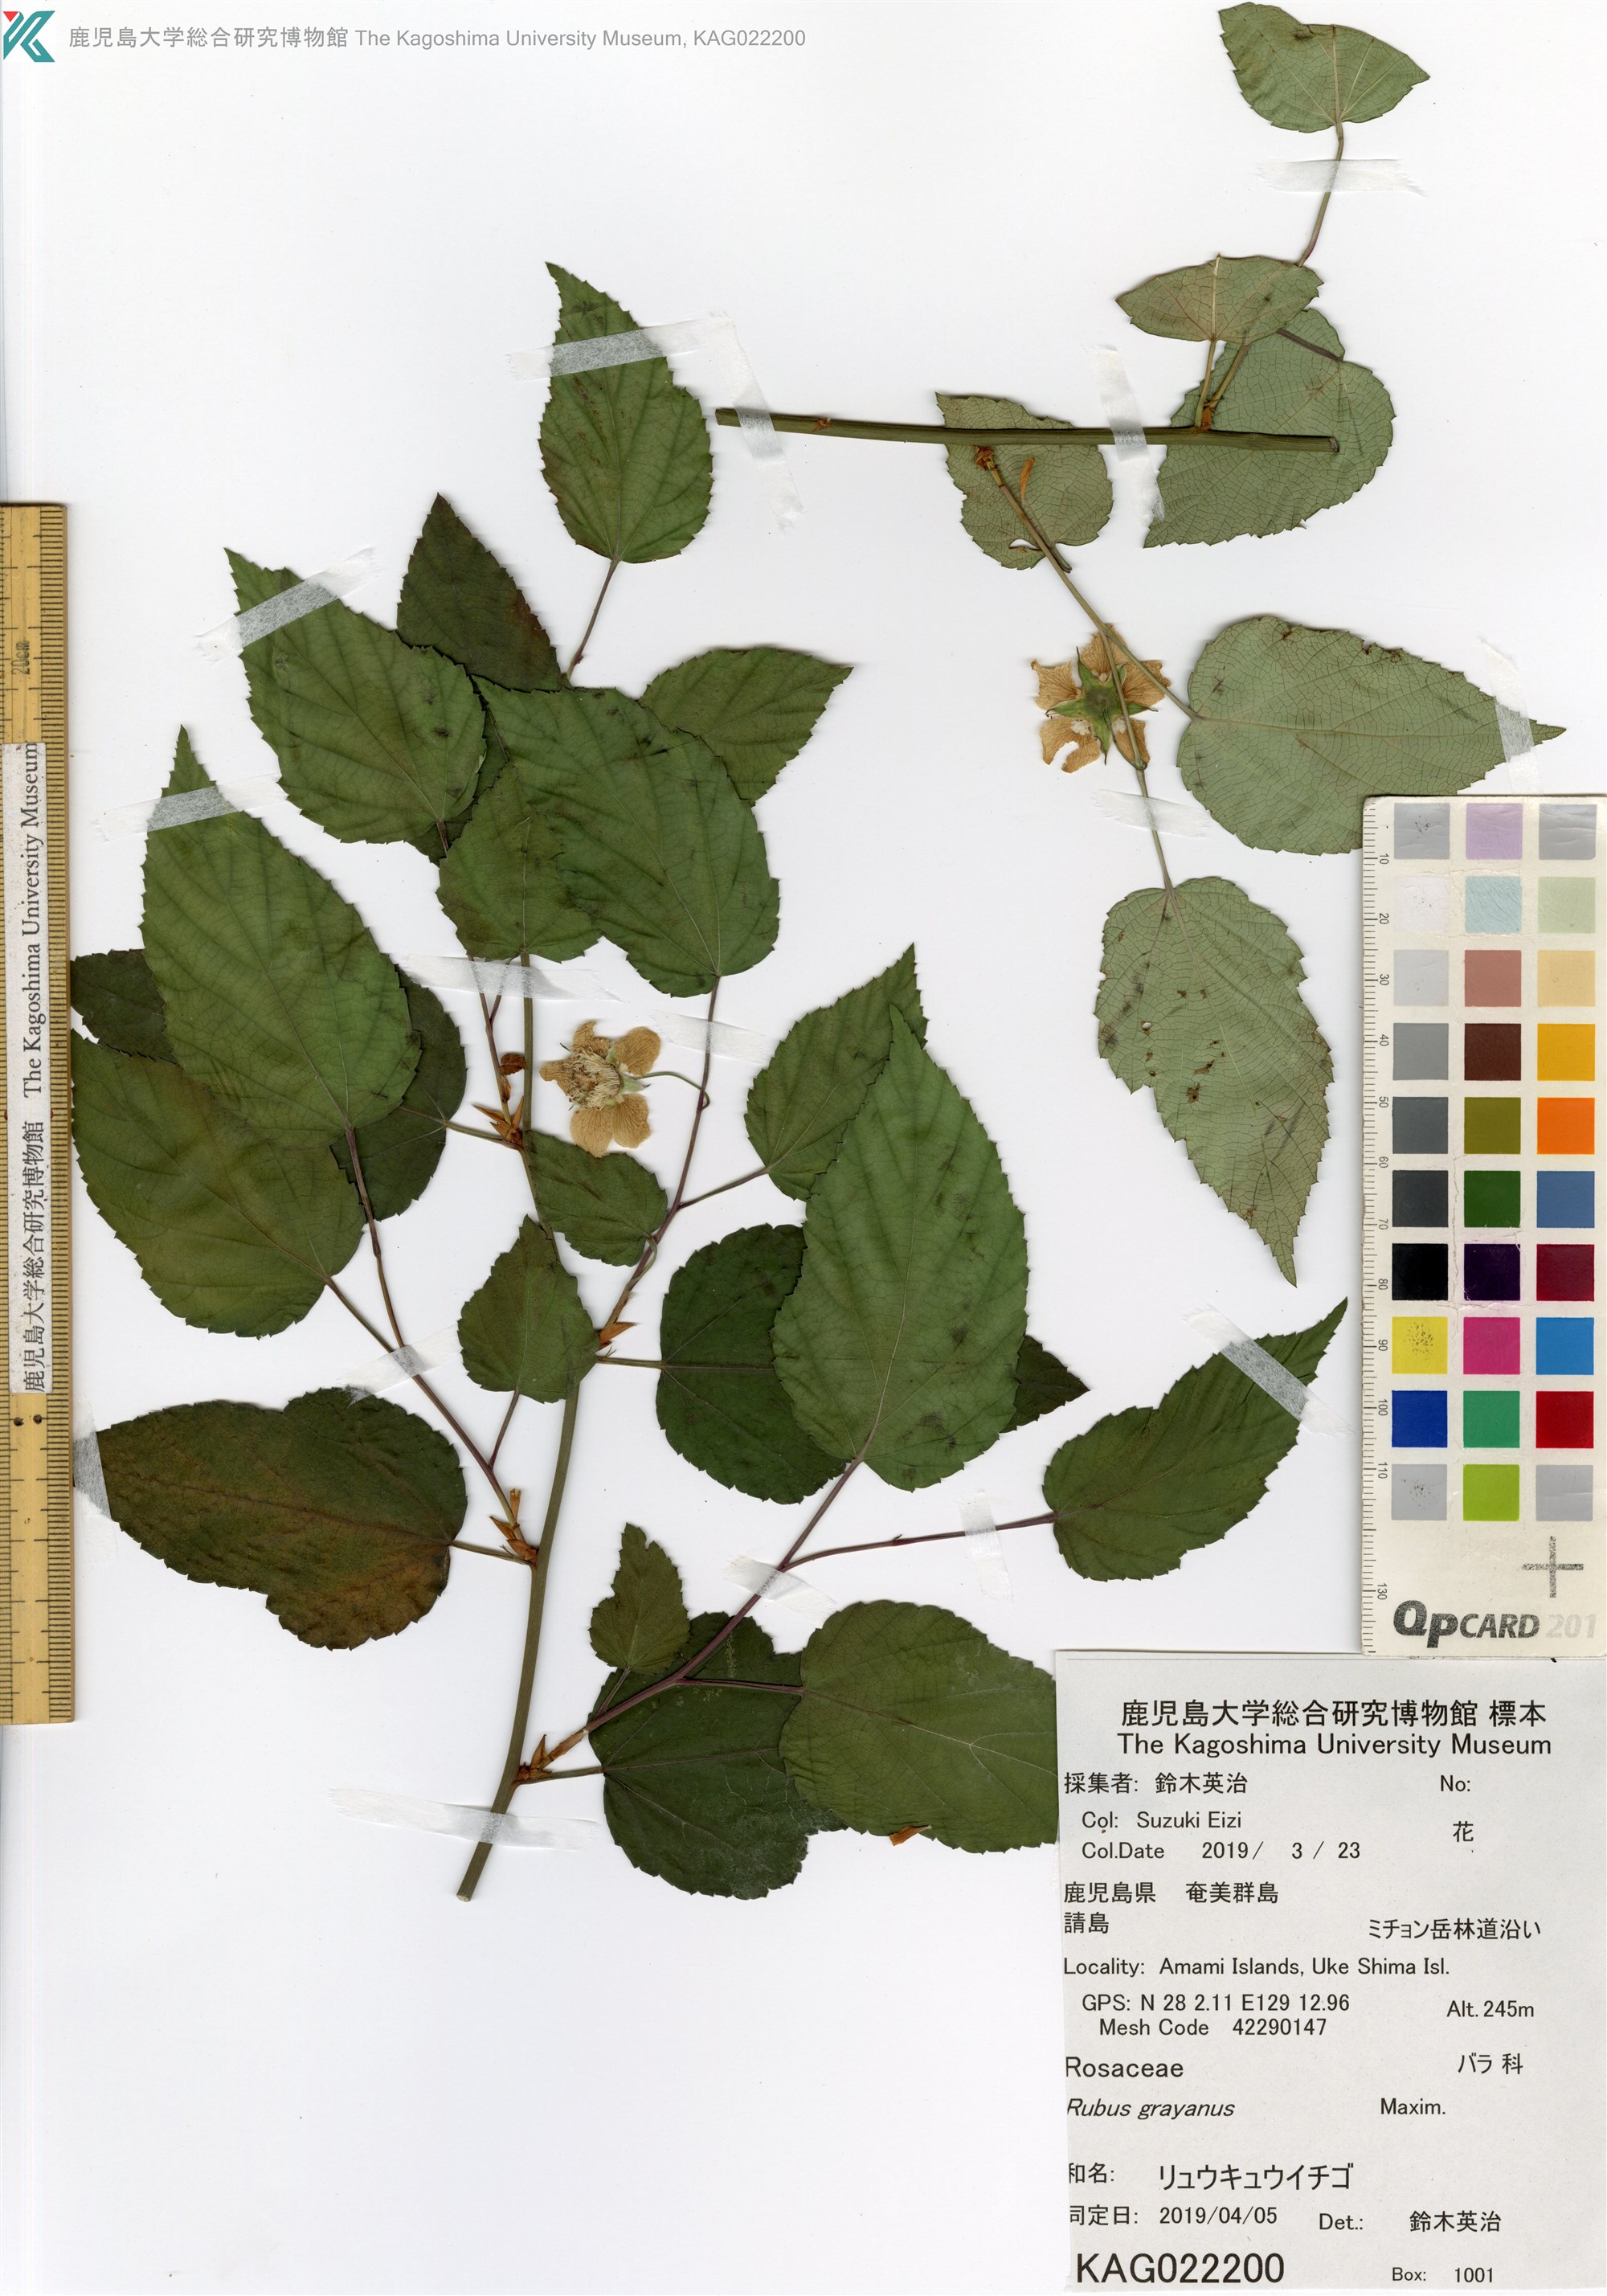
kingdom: Plantae
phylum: Tracheophyta
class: Magnoliopsida
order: Rosales
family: Rosaceae
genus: Rubus
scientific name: Rubus grayanus
